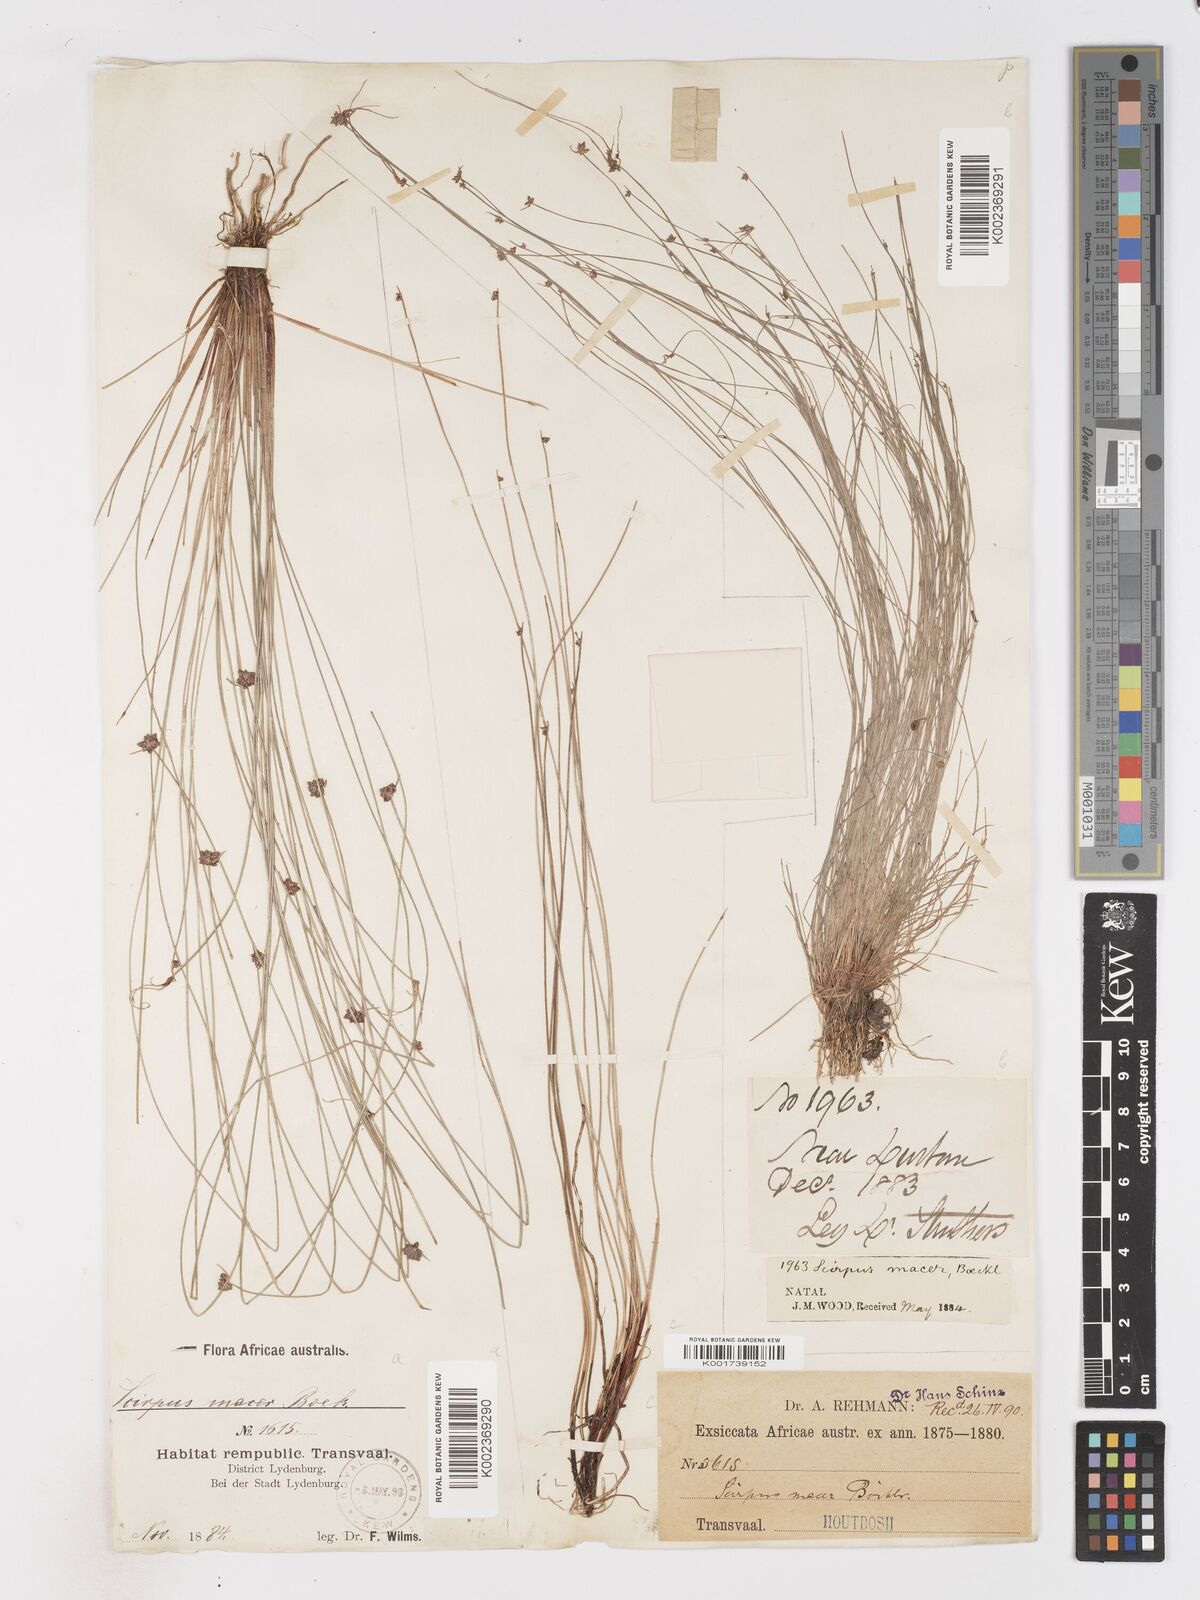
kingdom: Plantae
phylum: Tracheophyta
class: Liliopsida
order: Poales
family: Cyperaceae
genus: Isolepis
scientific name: Isolepis costata
